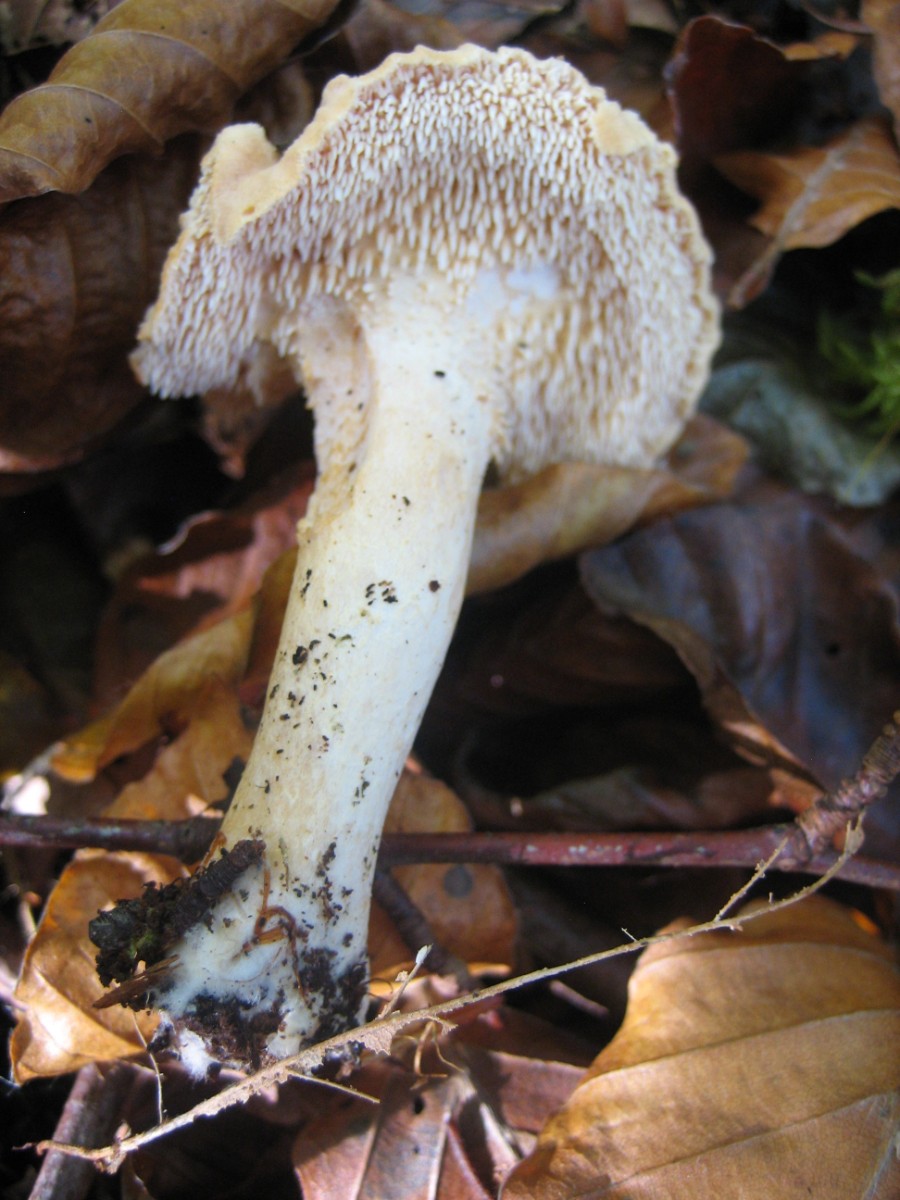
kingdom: Fungi
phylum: Basidiomycota
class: Agaricomycetes
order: Cantharellales
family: Hydnaceae
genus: Hydnum
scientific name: Hydnum repandum
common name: almindelig pigsvamp
